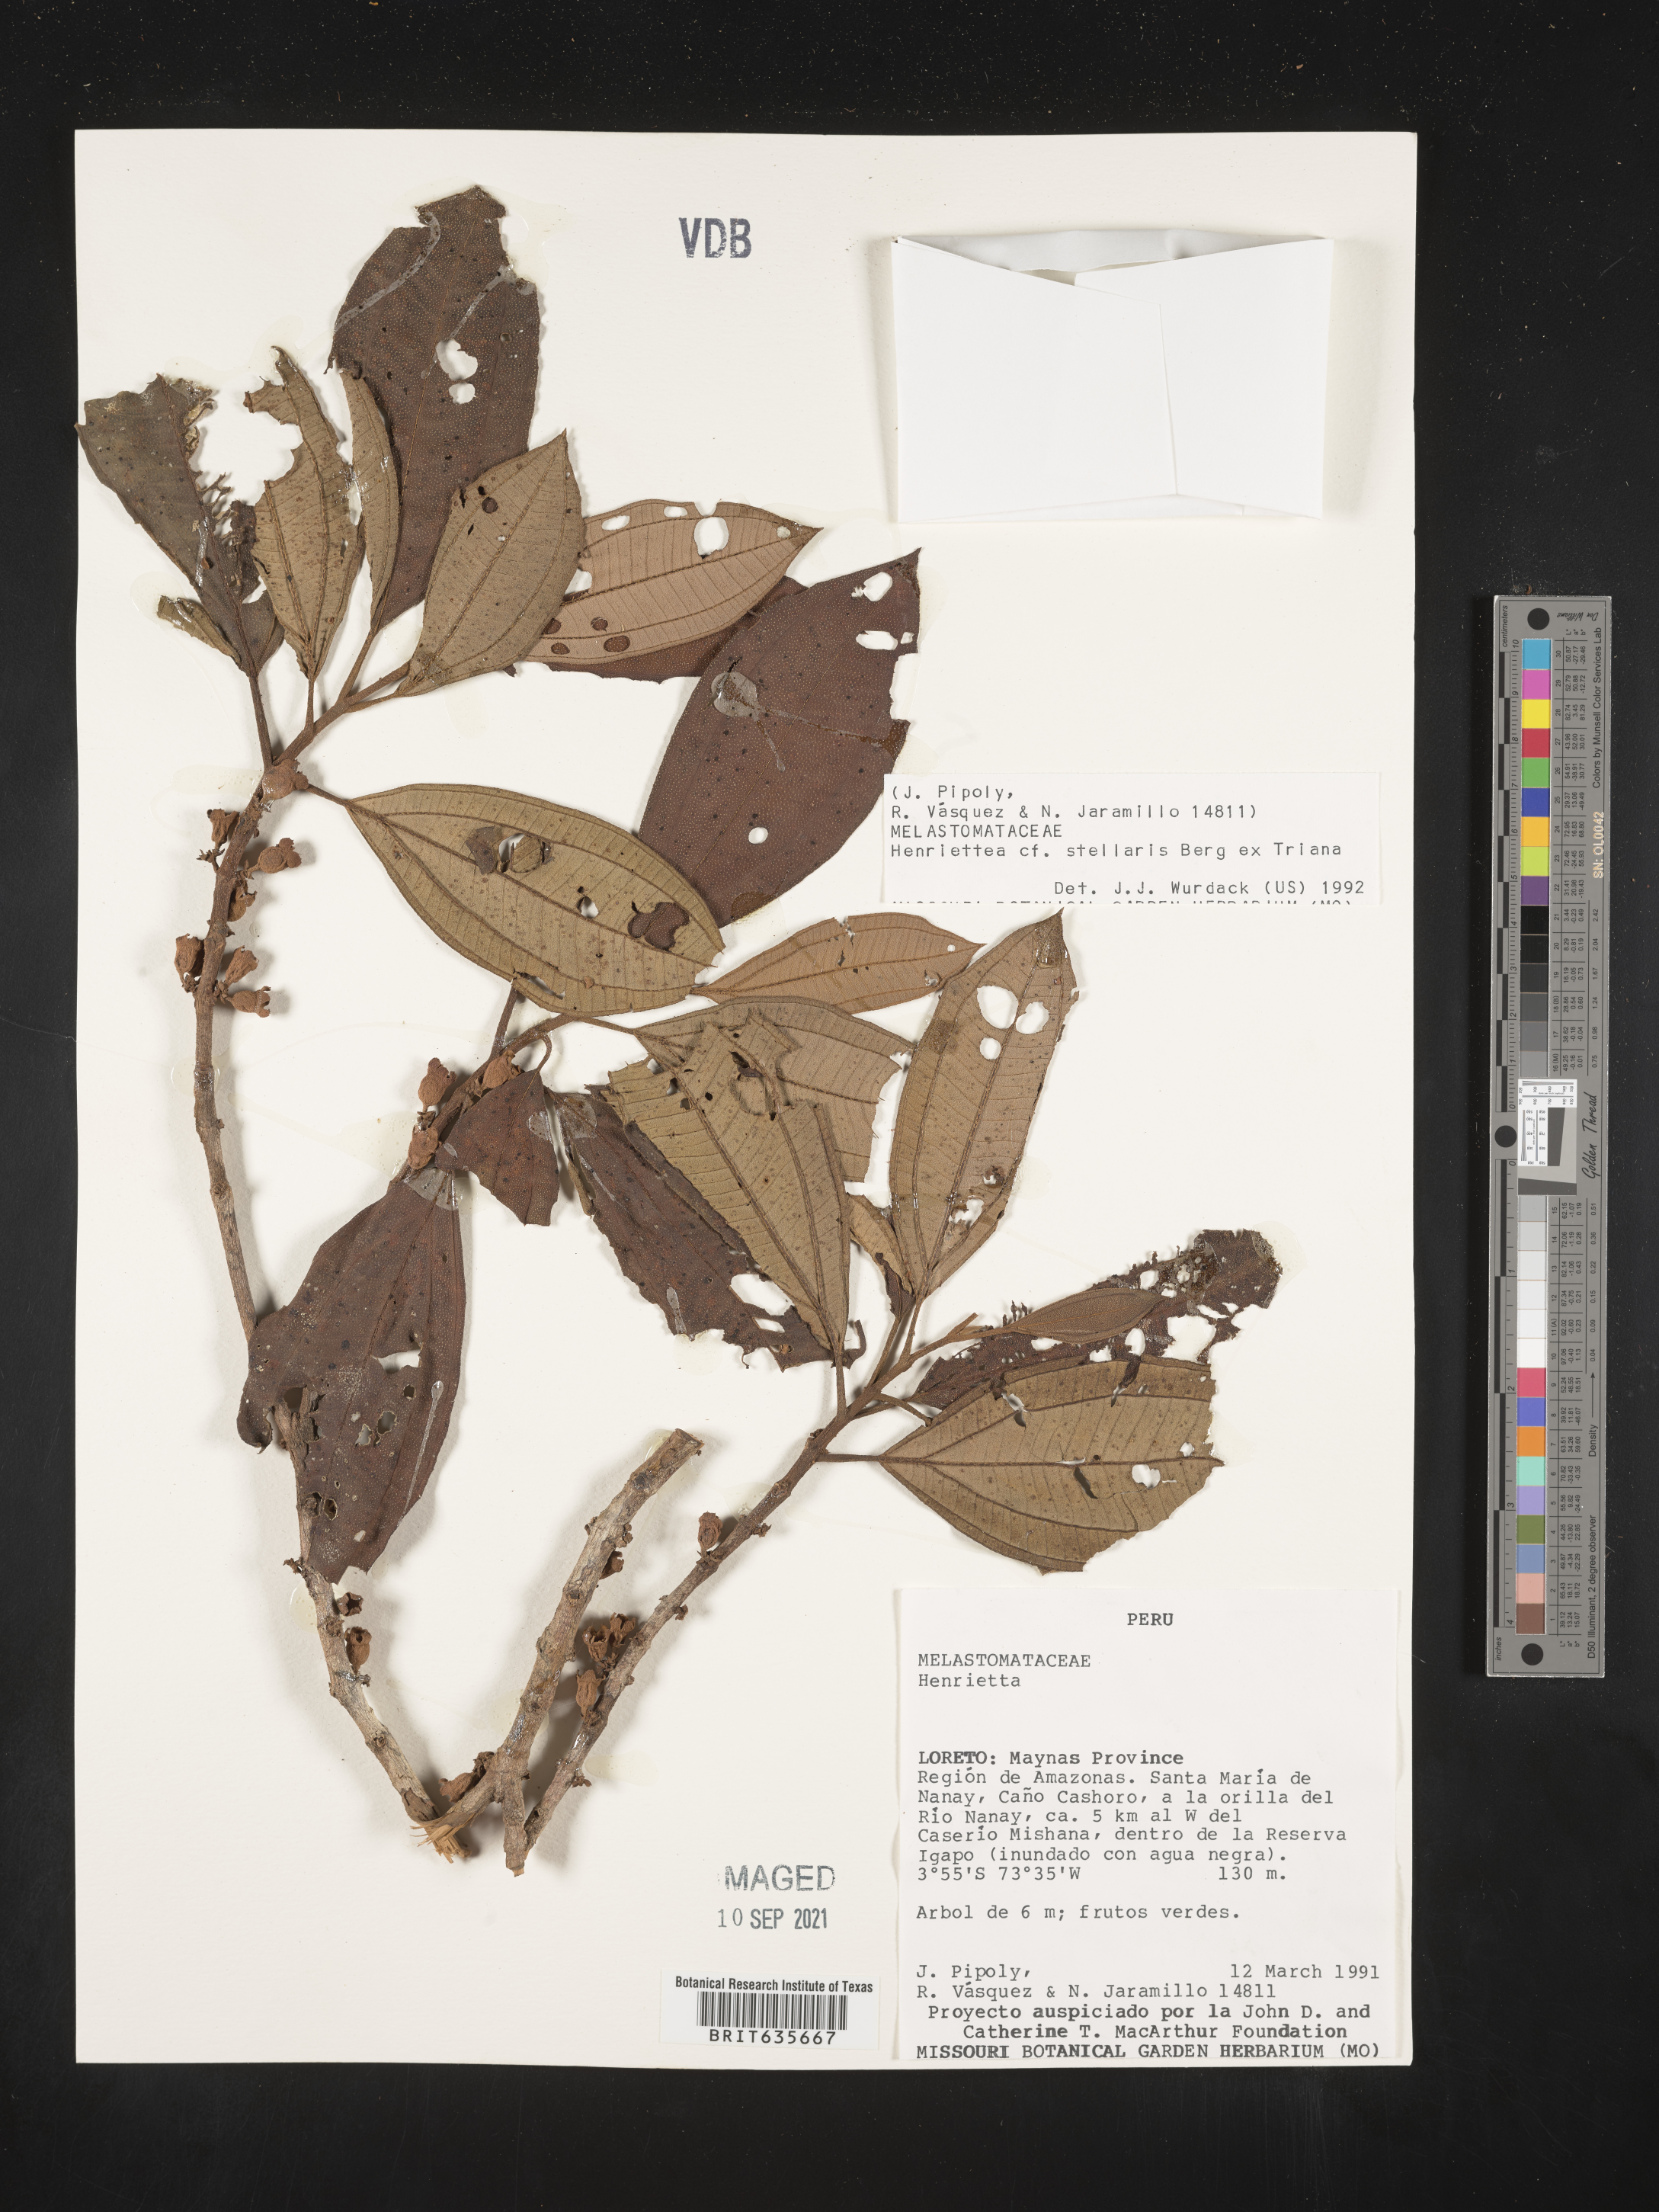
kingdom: Plantae
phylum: Tracheophyta
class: Magnoliopsida
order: Myrtales
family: Melastomataceae
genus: Henriettea
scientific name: Henriettea
